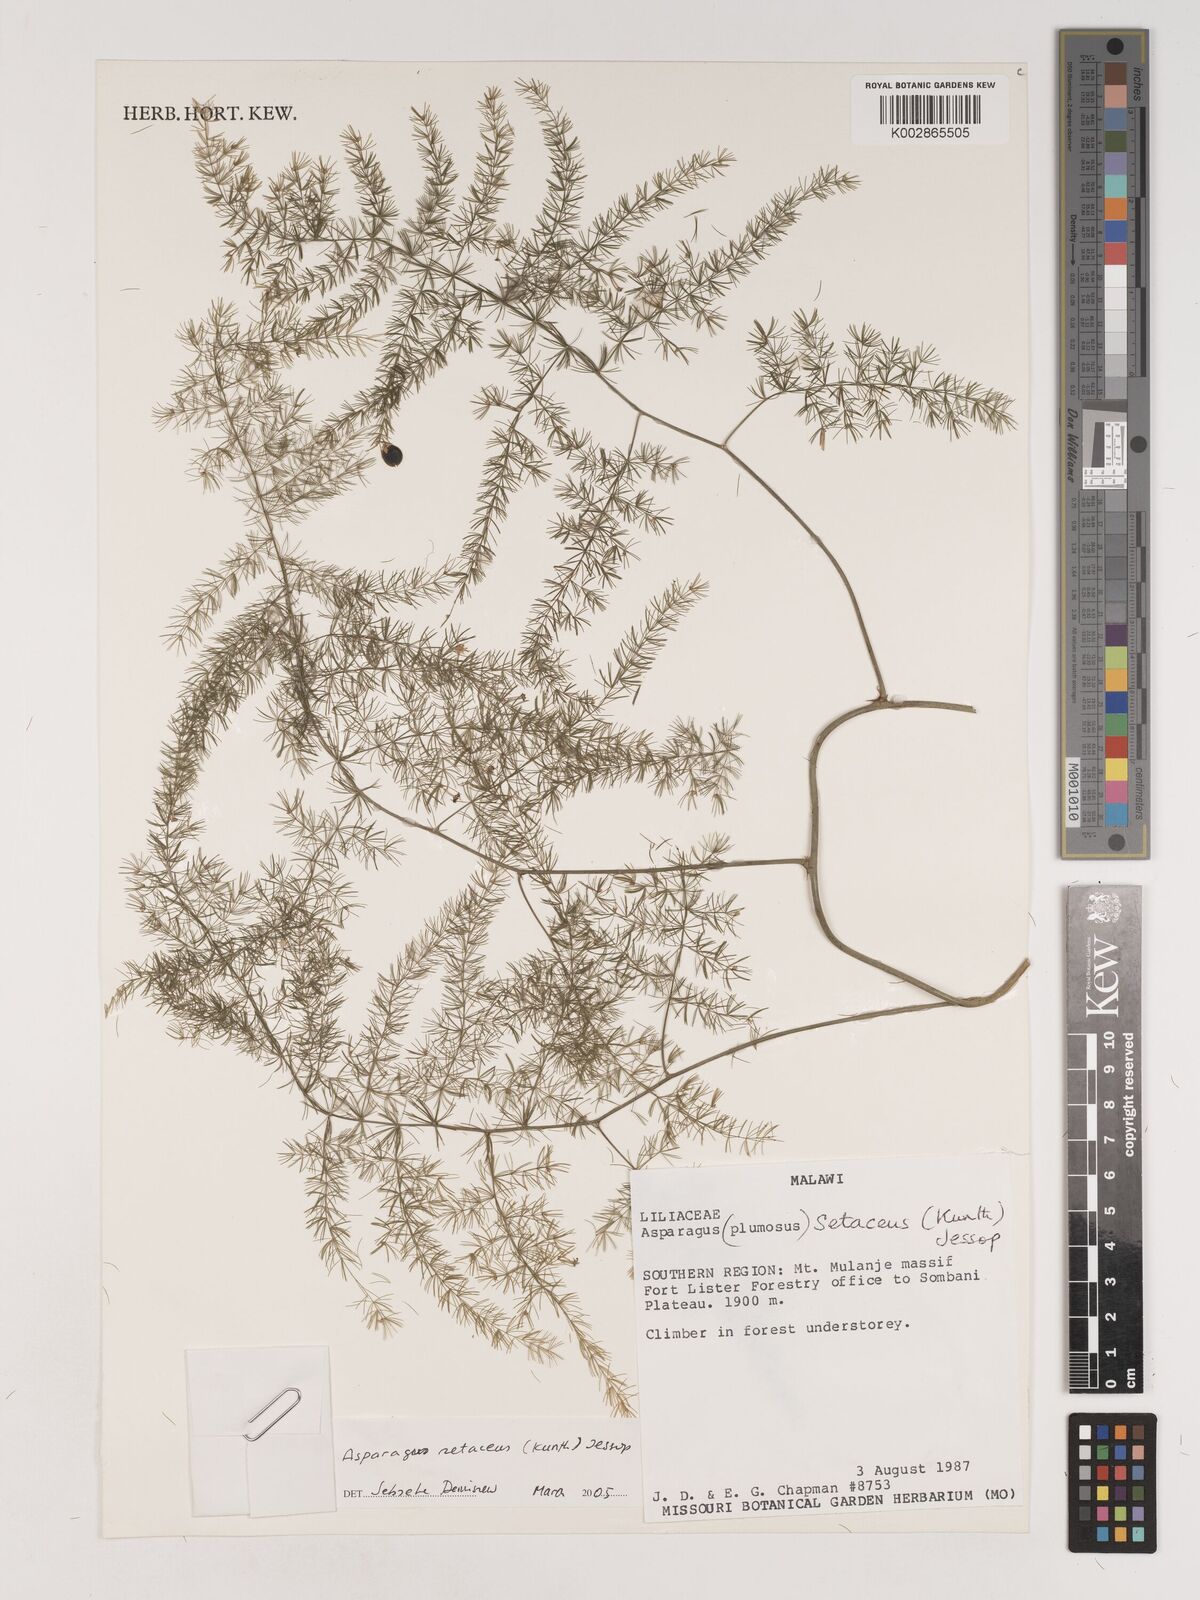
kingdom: Plantae
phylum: Tracheophyta
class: Liliopsida
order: Asparagales
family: Asparagaceae
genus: Asparagus
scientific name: Asparagus setaceus
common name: Common asparagus fern
